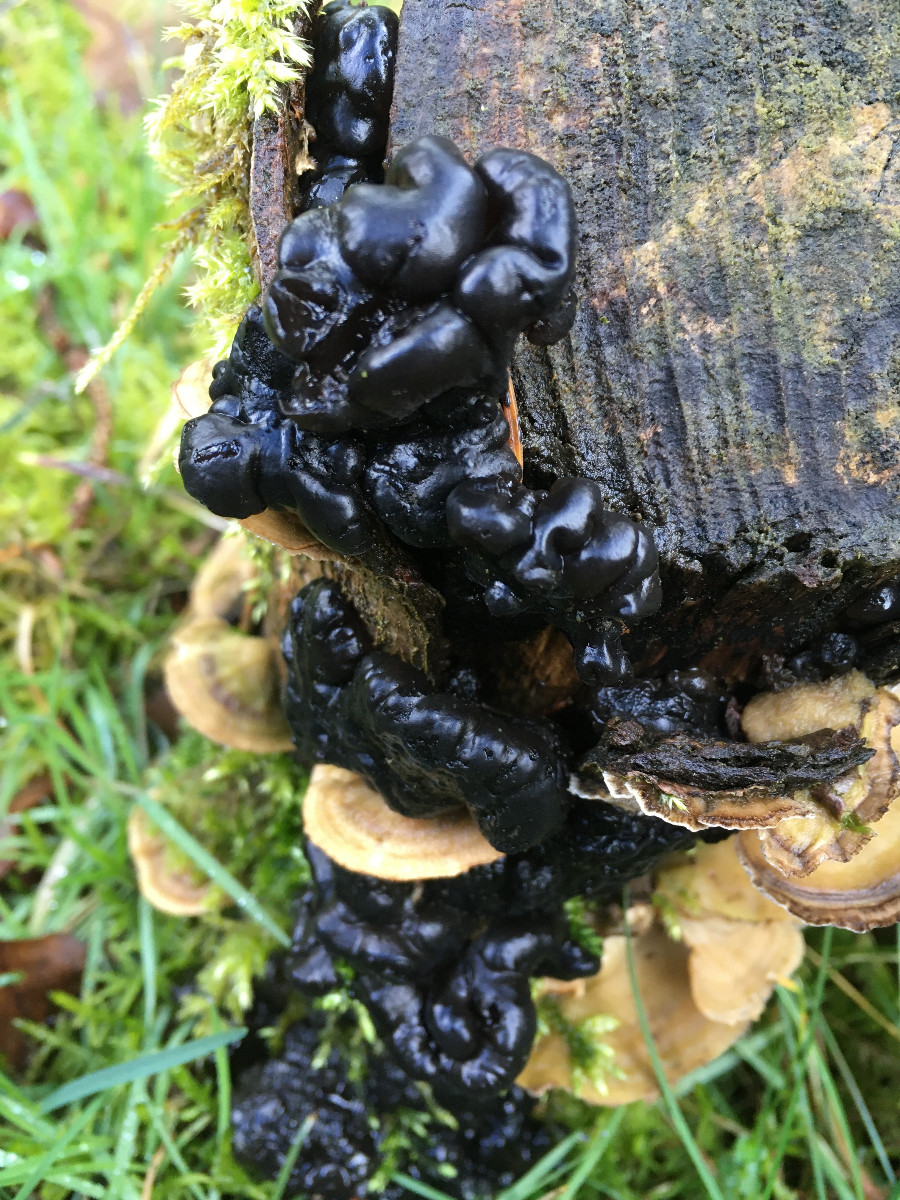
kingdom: Fungi
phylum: Basidiomycota
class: Agaricomycetes
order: Auriculariales
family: Auriculariaceae
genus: Exidia
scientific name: Exidia nigricans
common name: almindelig bævretop
